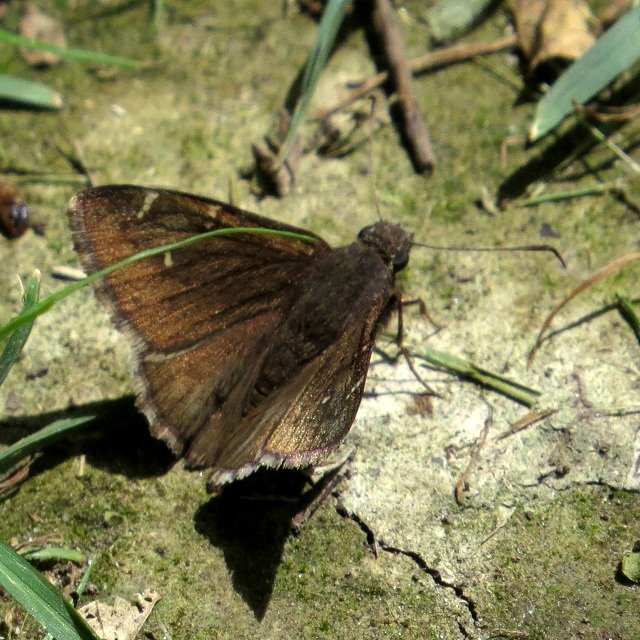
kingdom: Animalia
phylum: Arthropoda
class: Insecta
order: Lepidoptera
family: Hesperiidae
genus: Autochton
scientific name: Autochton
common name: Northern Cloudywing
